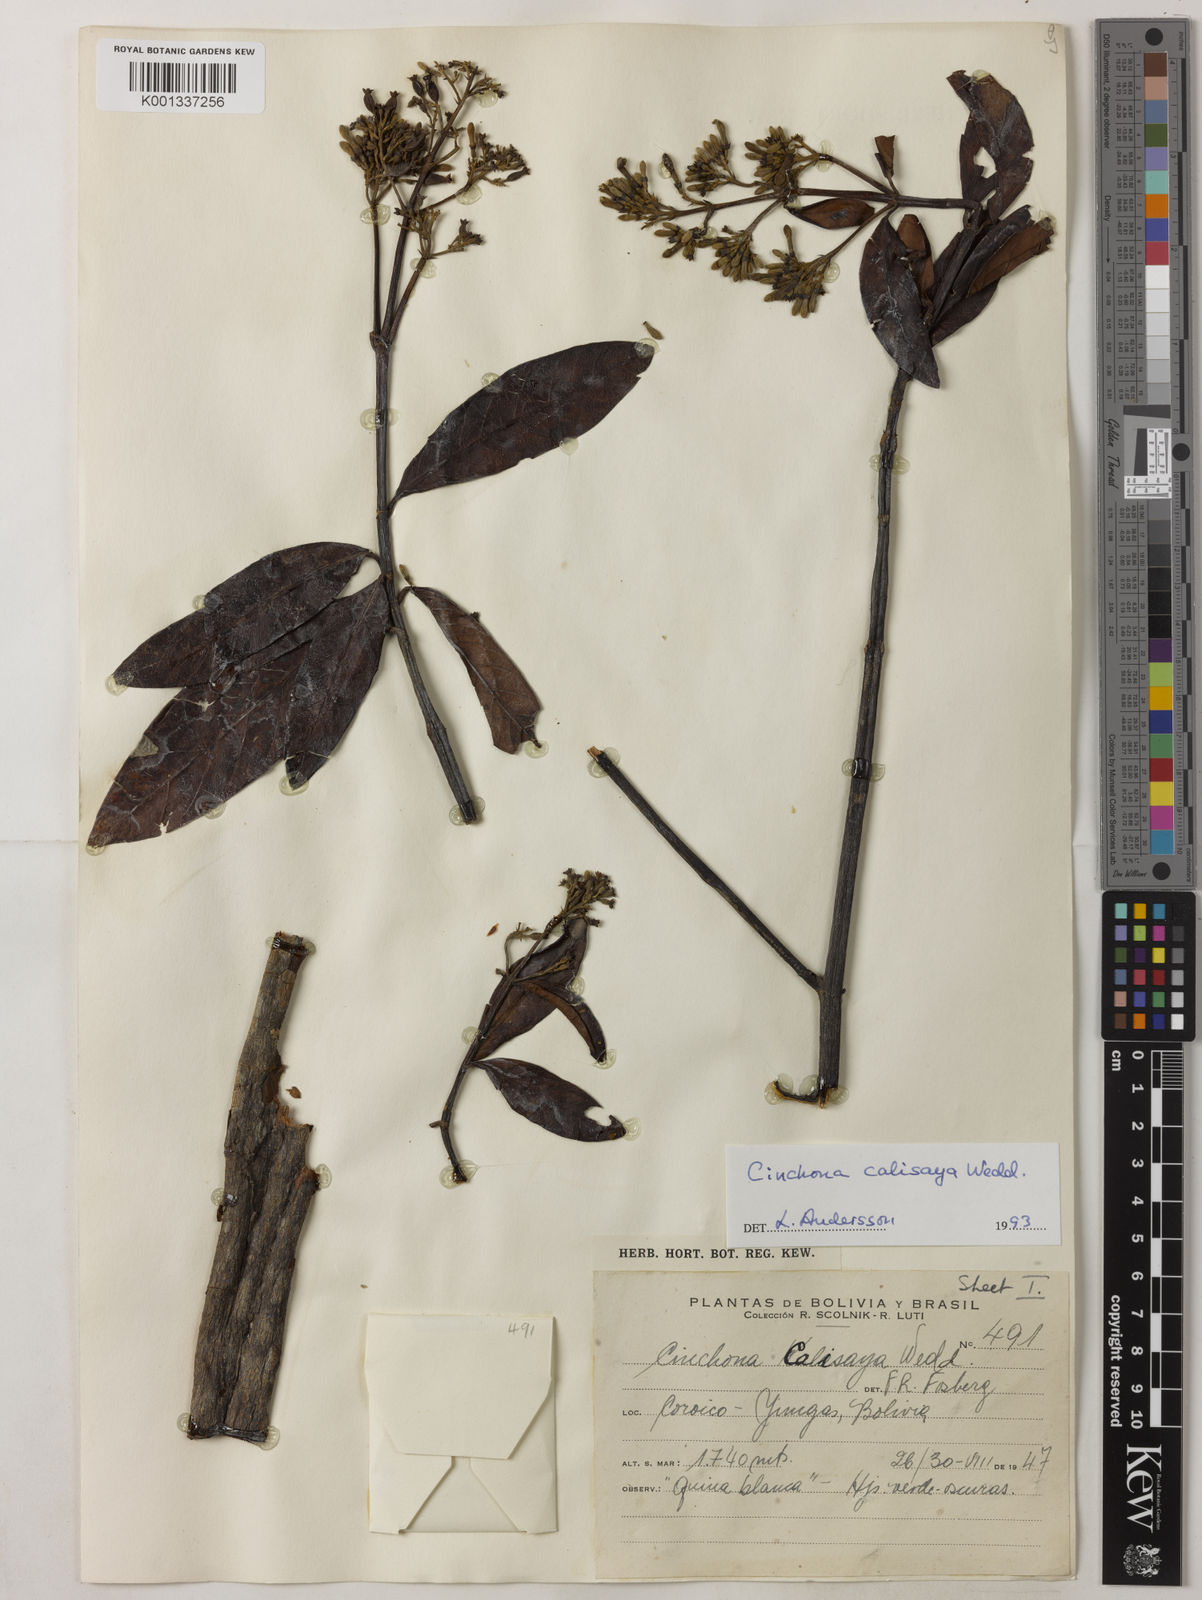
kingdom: Plantae
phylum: Tracheophyta
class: Magnoliopsida
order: Gentianales
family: Rubiaceae
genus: Cinchona
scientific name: Cinchona calisaya
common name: Ledgerbark
